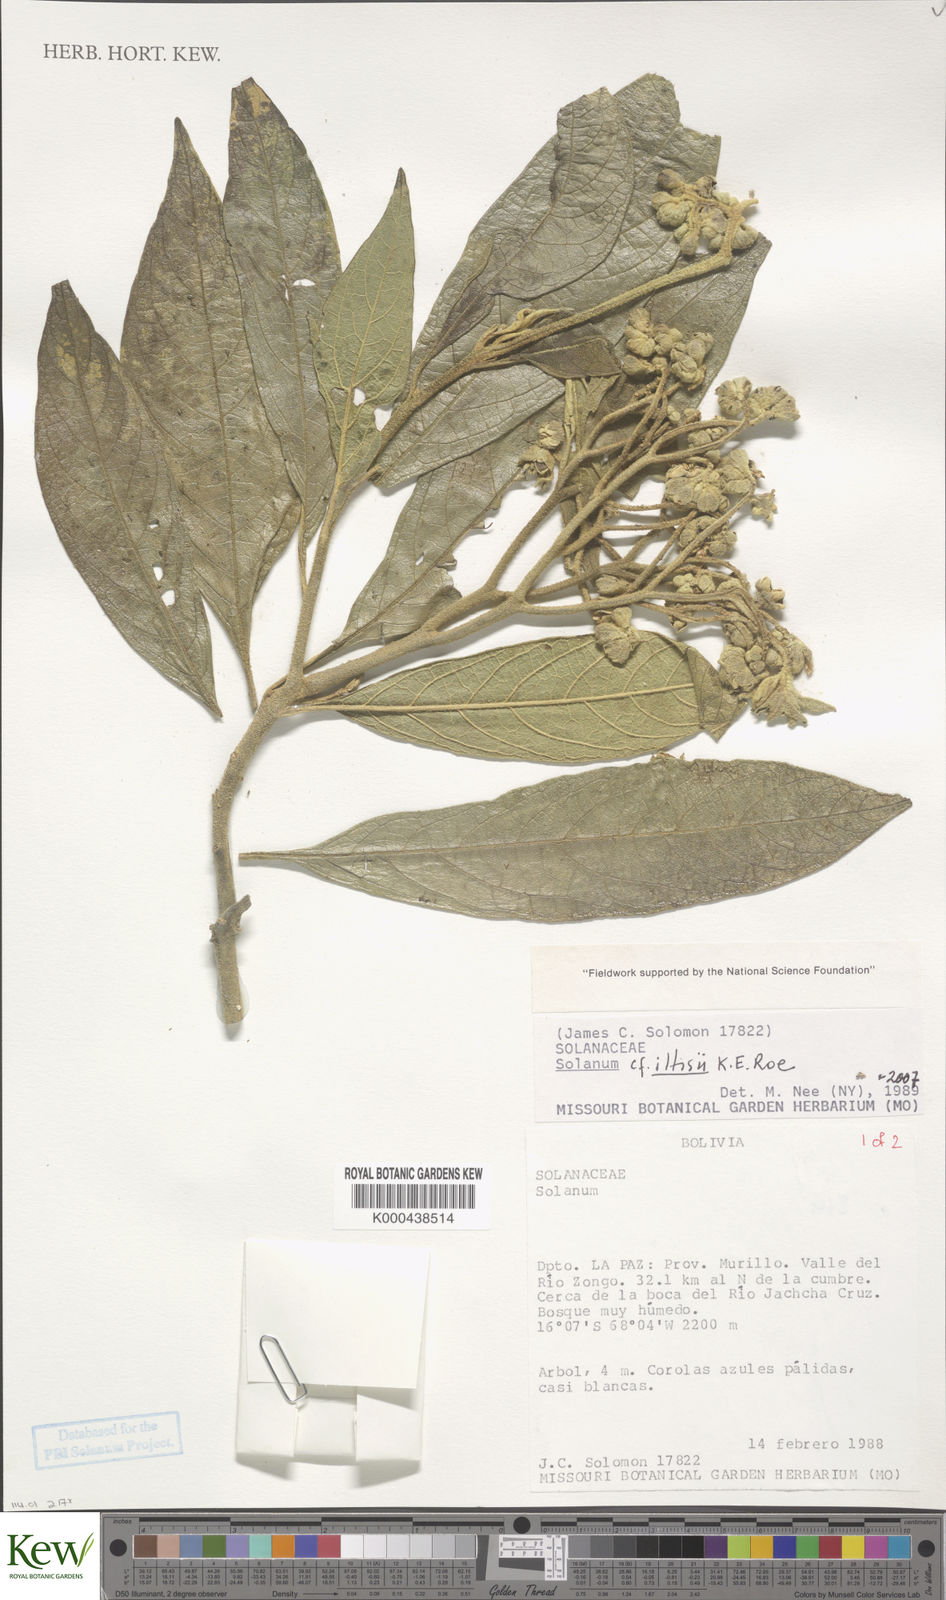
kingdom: Plantae
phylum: Tracheophyta
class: Magnoliopsida
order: Solanales
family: Solanaceae
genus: Solanum
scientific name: Solanum iltisii
